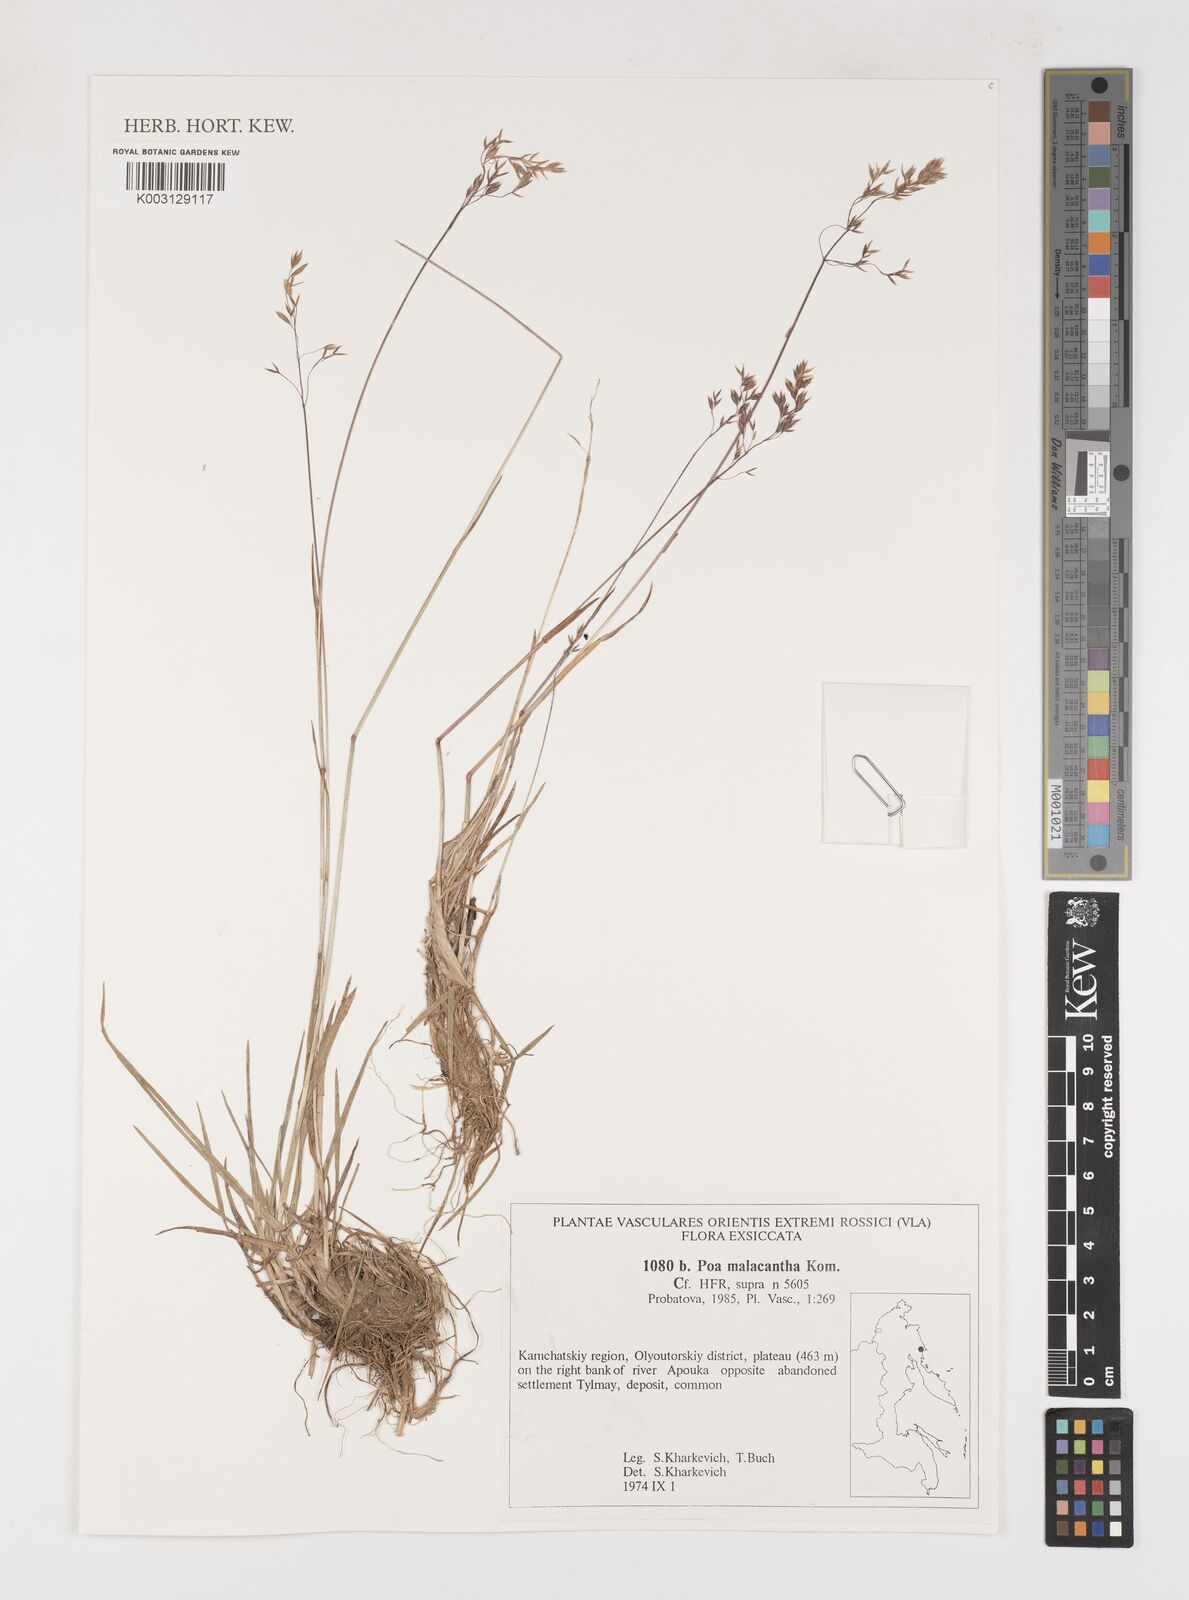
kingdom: Plantae
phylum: Tracheophyta
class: Liliopsida
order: Poales
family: Poaceae
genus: Poa
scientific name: Poa arctica
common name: Arctic bluegrass
